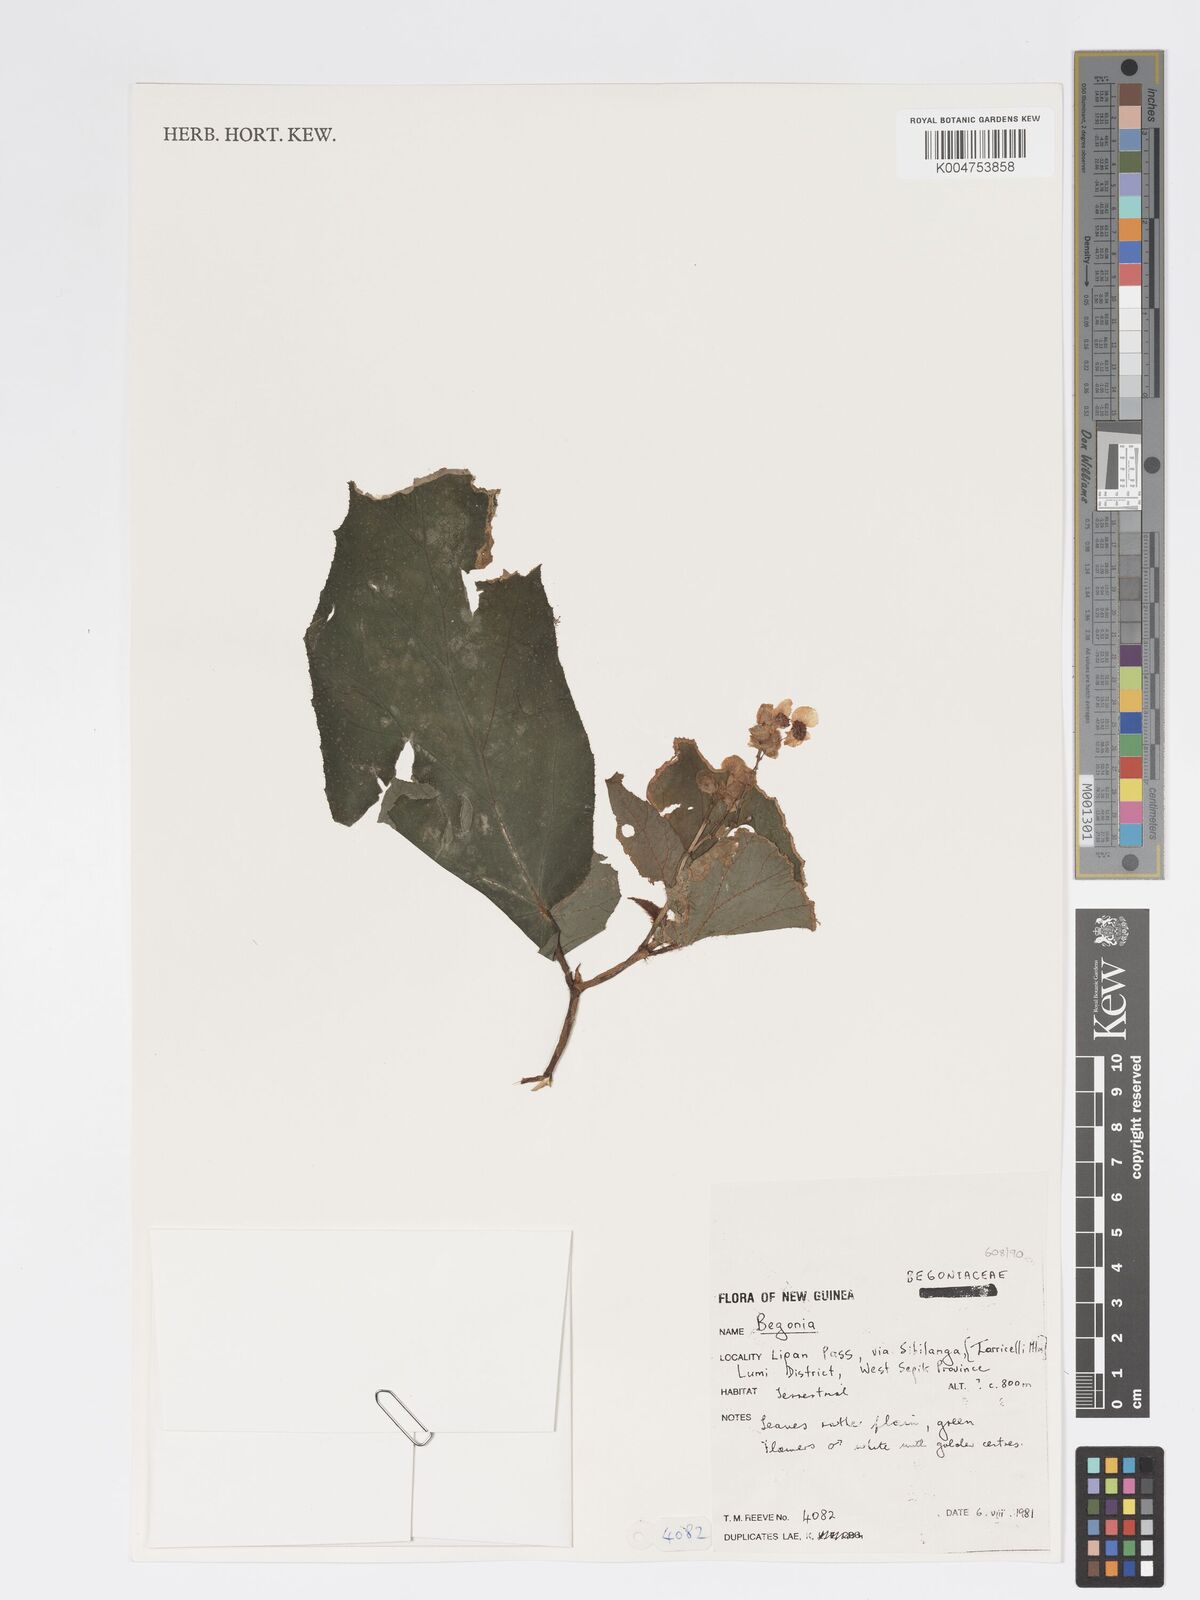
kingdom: Plantae
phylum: Tracheophyta
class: Magnoliopsida
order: Cucurbitales
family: Begoniaceae
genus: Begonia
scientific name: Begonia
